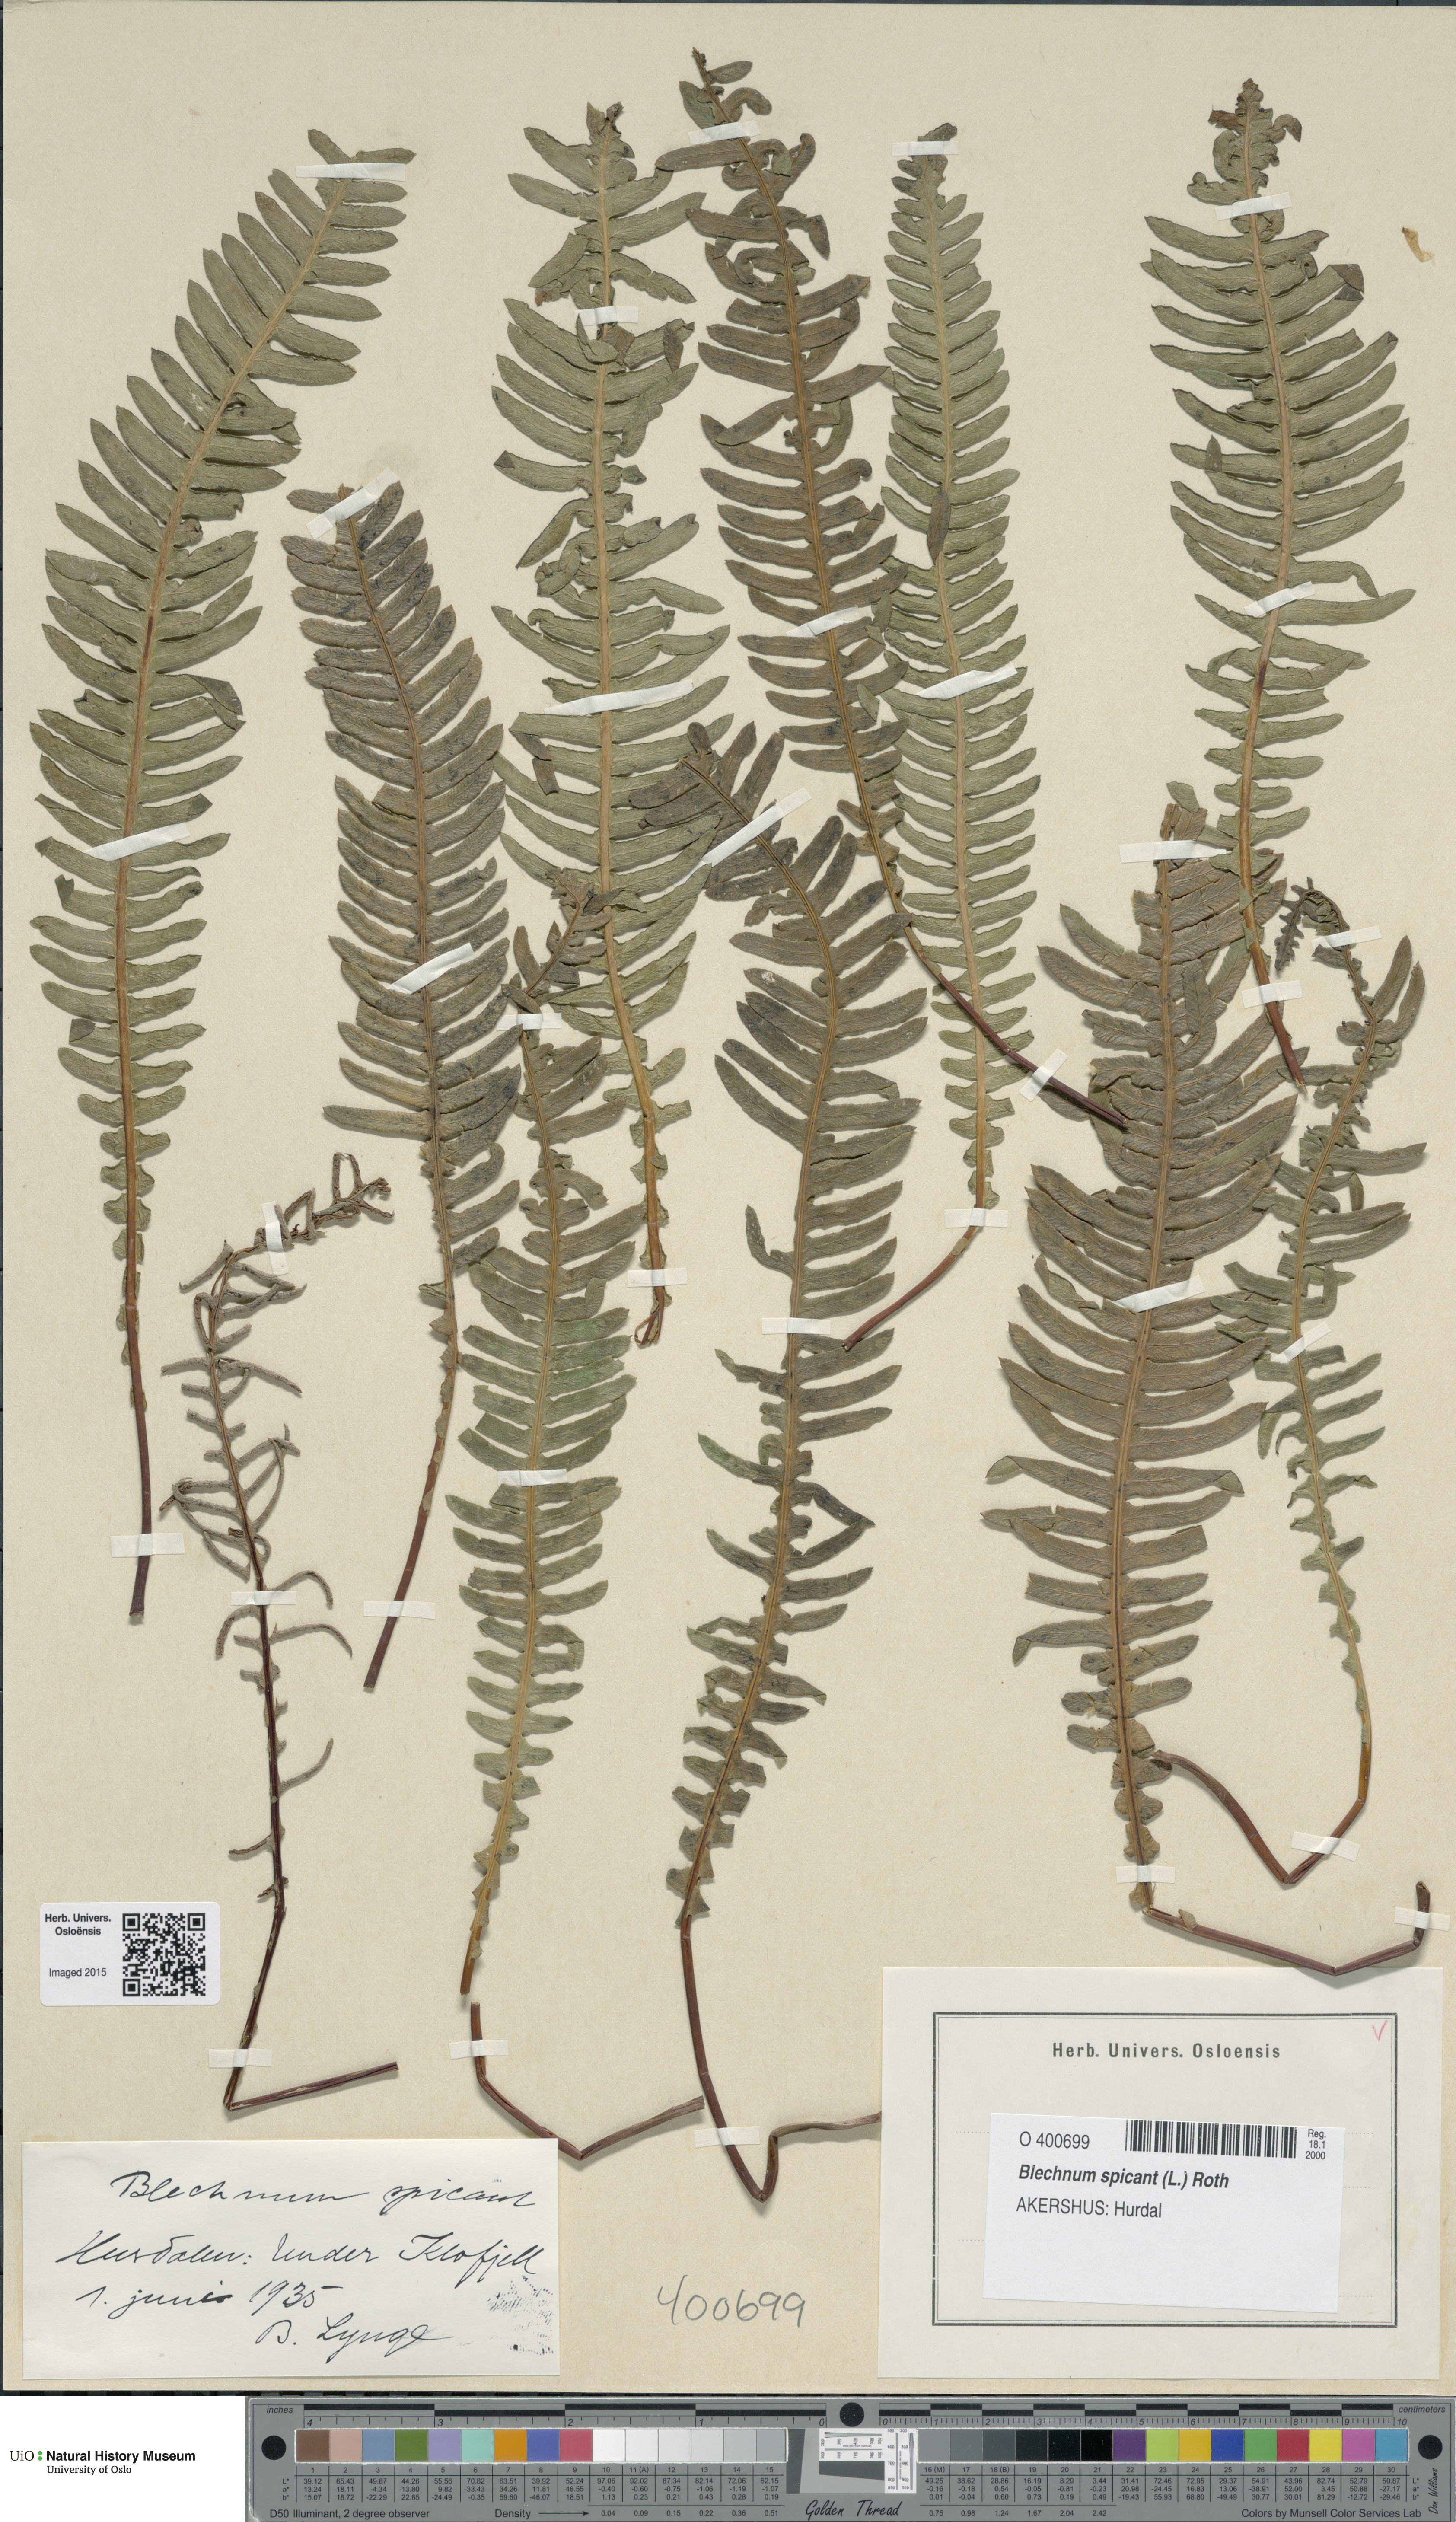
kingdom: Plantae
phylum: Tracheophyta
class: Polypodiopsida
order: Polypodiales
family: Blechnaceae
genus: Struthiopteris
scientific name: Struthiopteris spicant
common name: Deer fern
